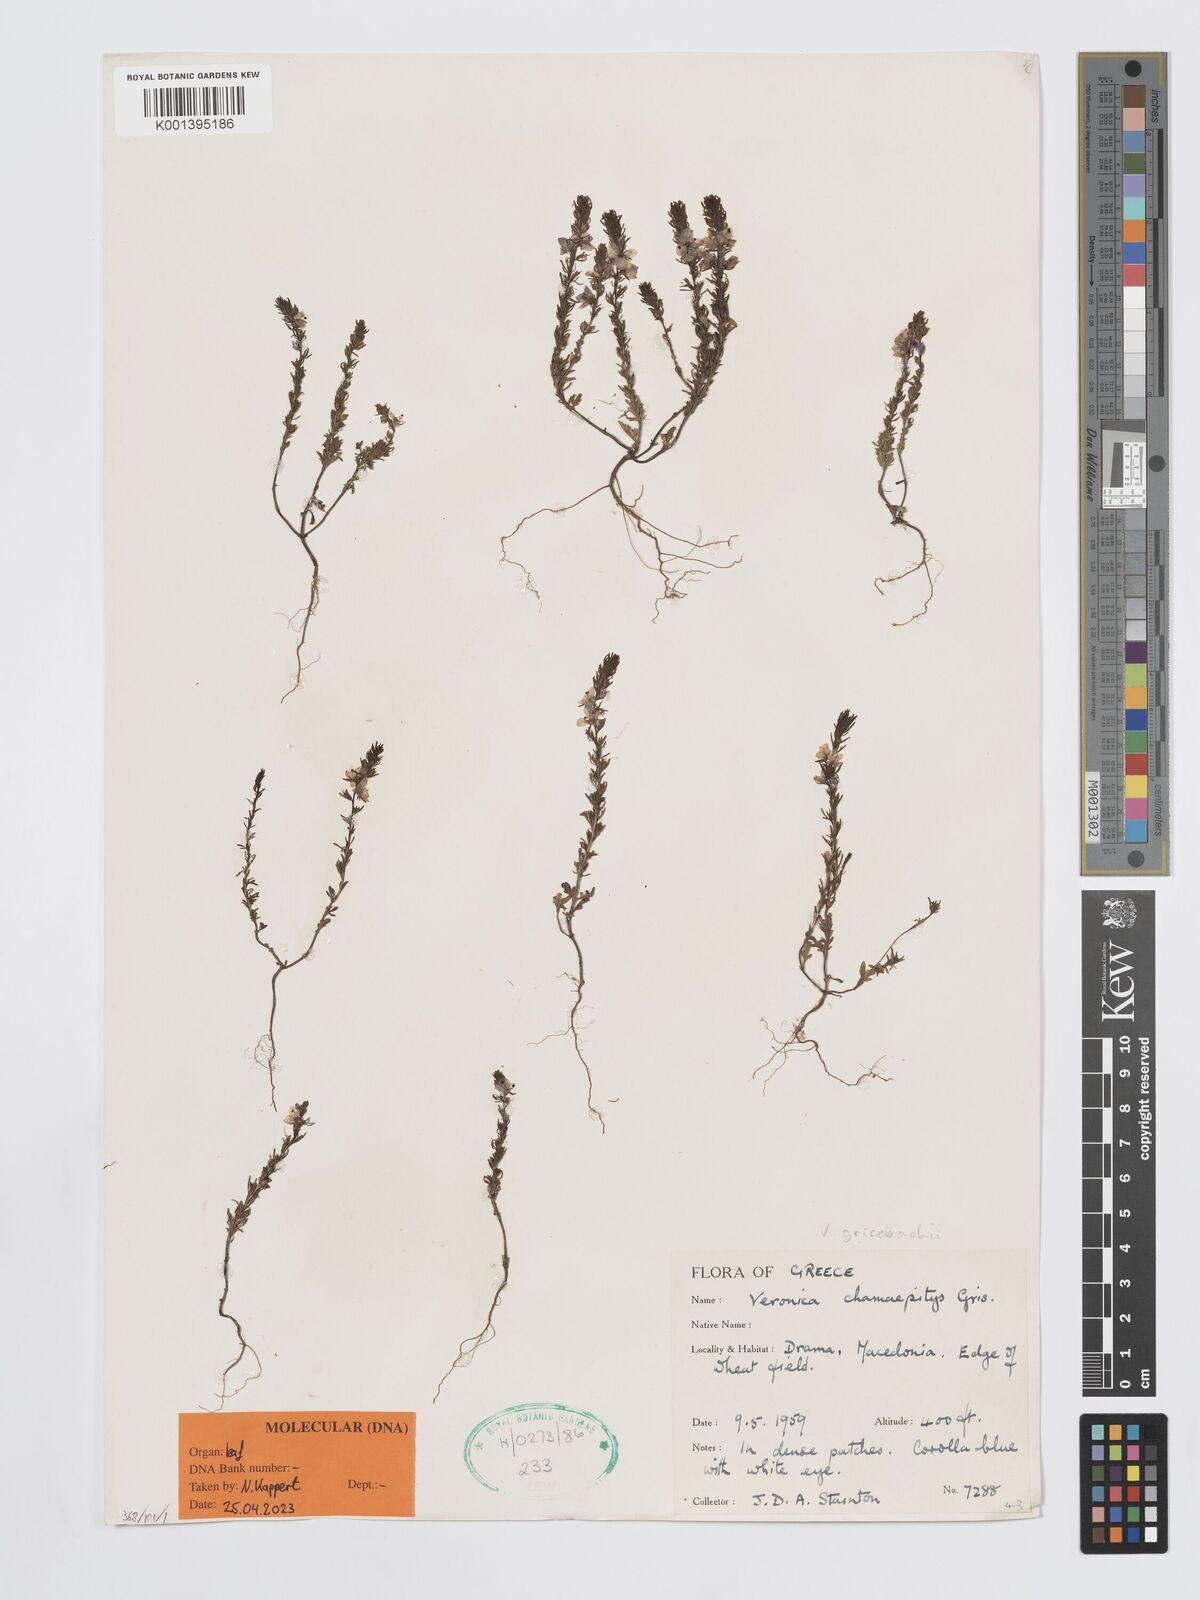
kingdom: Plantae
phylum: Tracheophyta
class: Magnoliopsida
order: Lamiales
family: Plantaginaceae
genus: Veronica
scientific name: Veronica grisebachii
